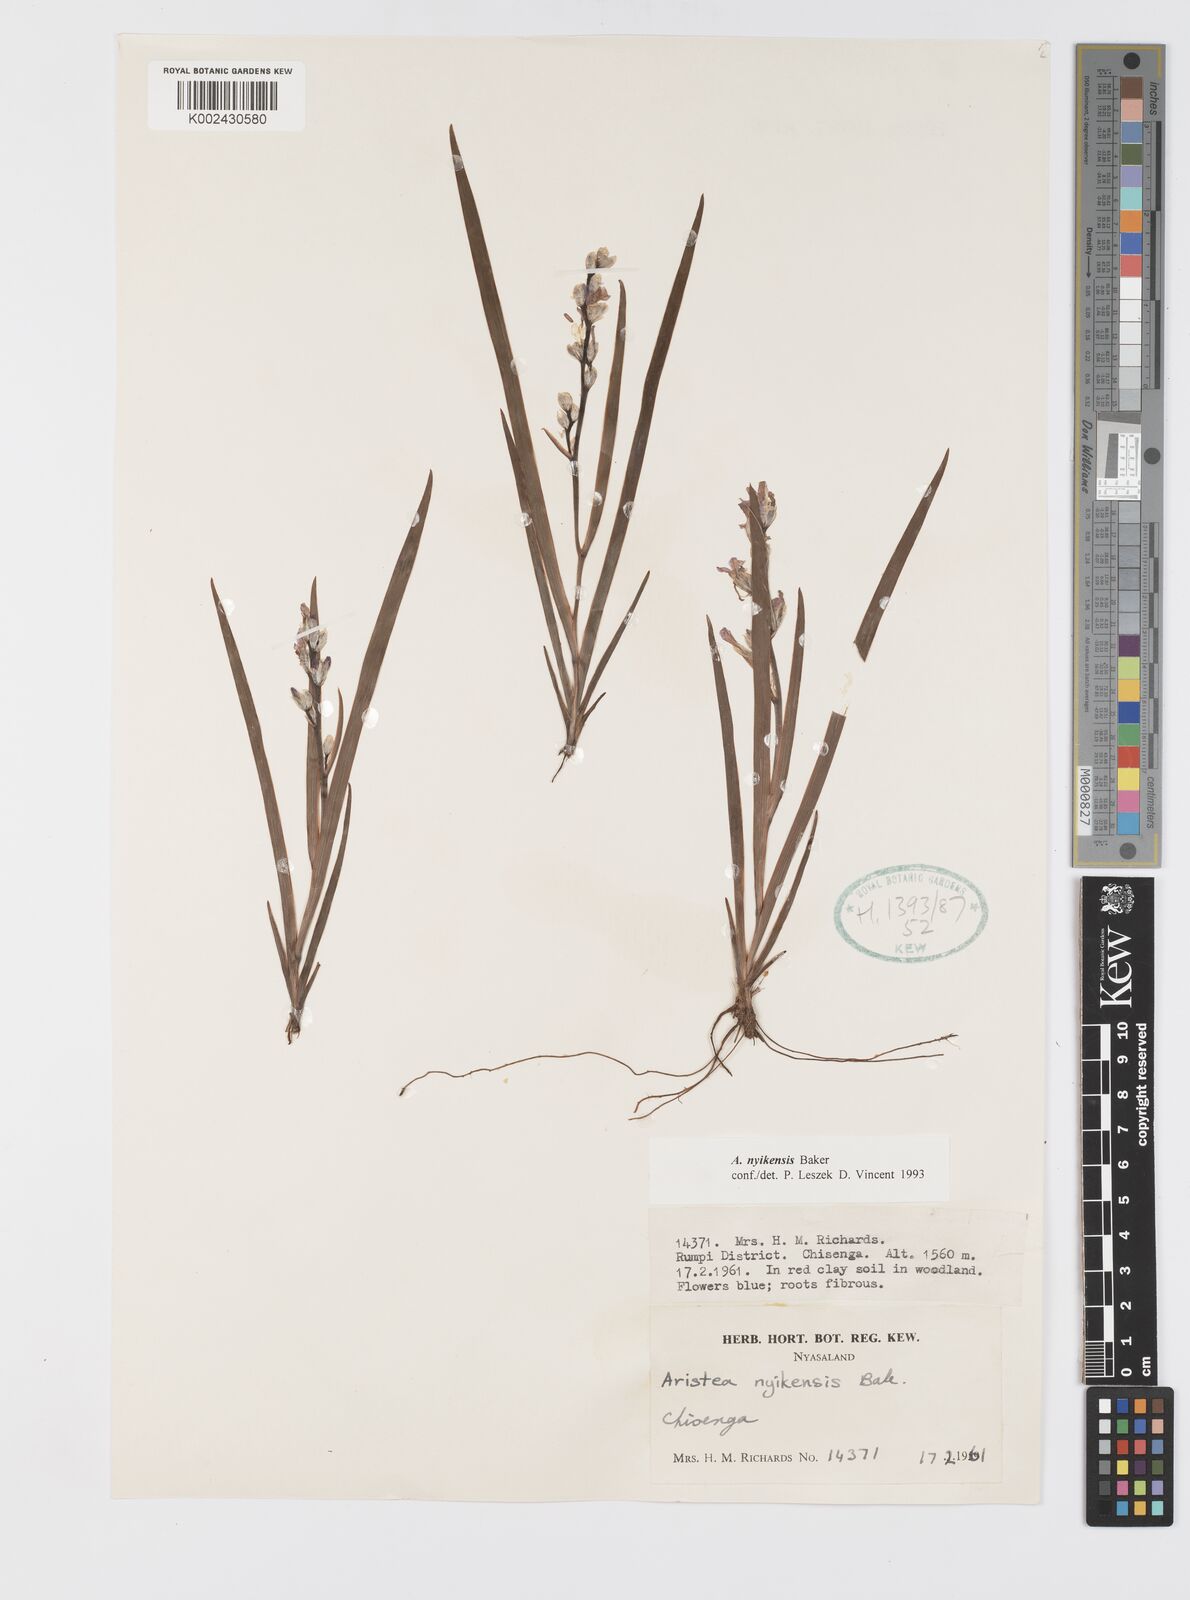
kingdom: Plantae
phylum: Tracheophyta
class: Liliopsida
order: Asparagales
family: Iridaceae
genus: Aristea
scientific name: Aristea nyikensis
